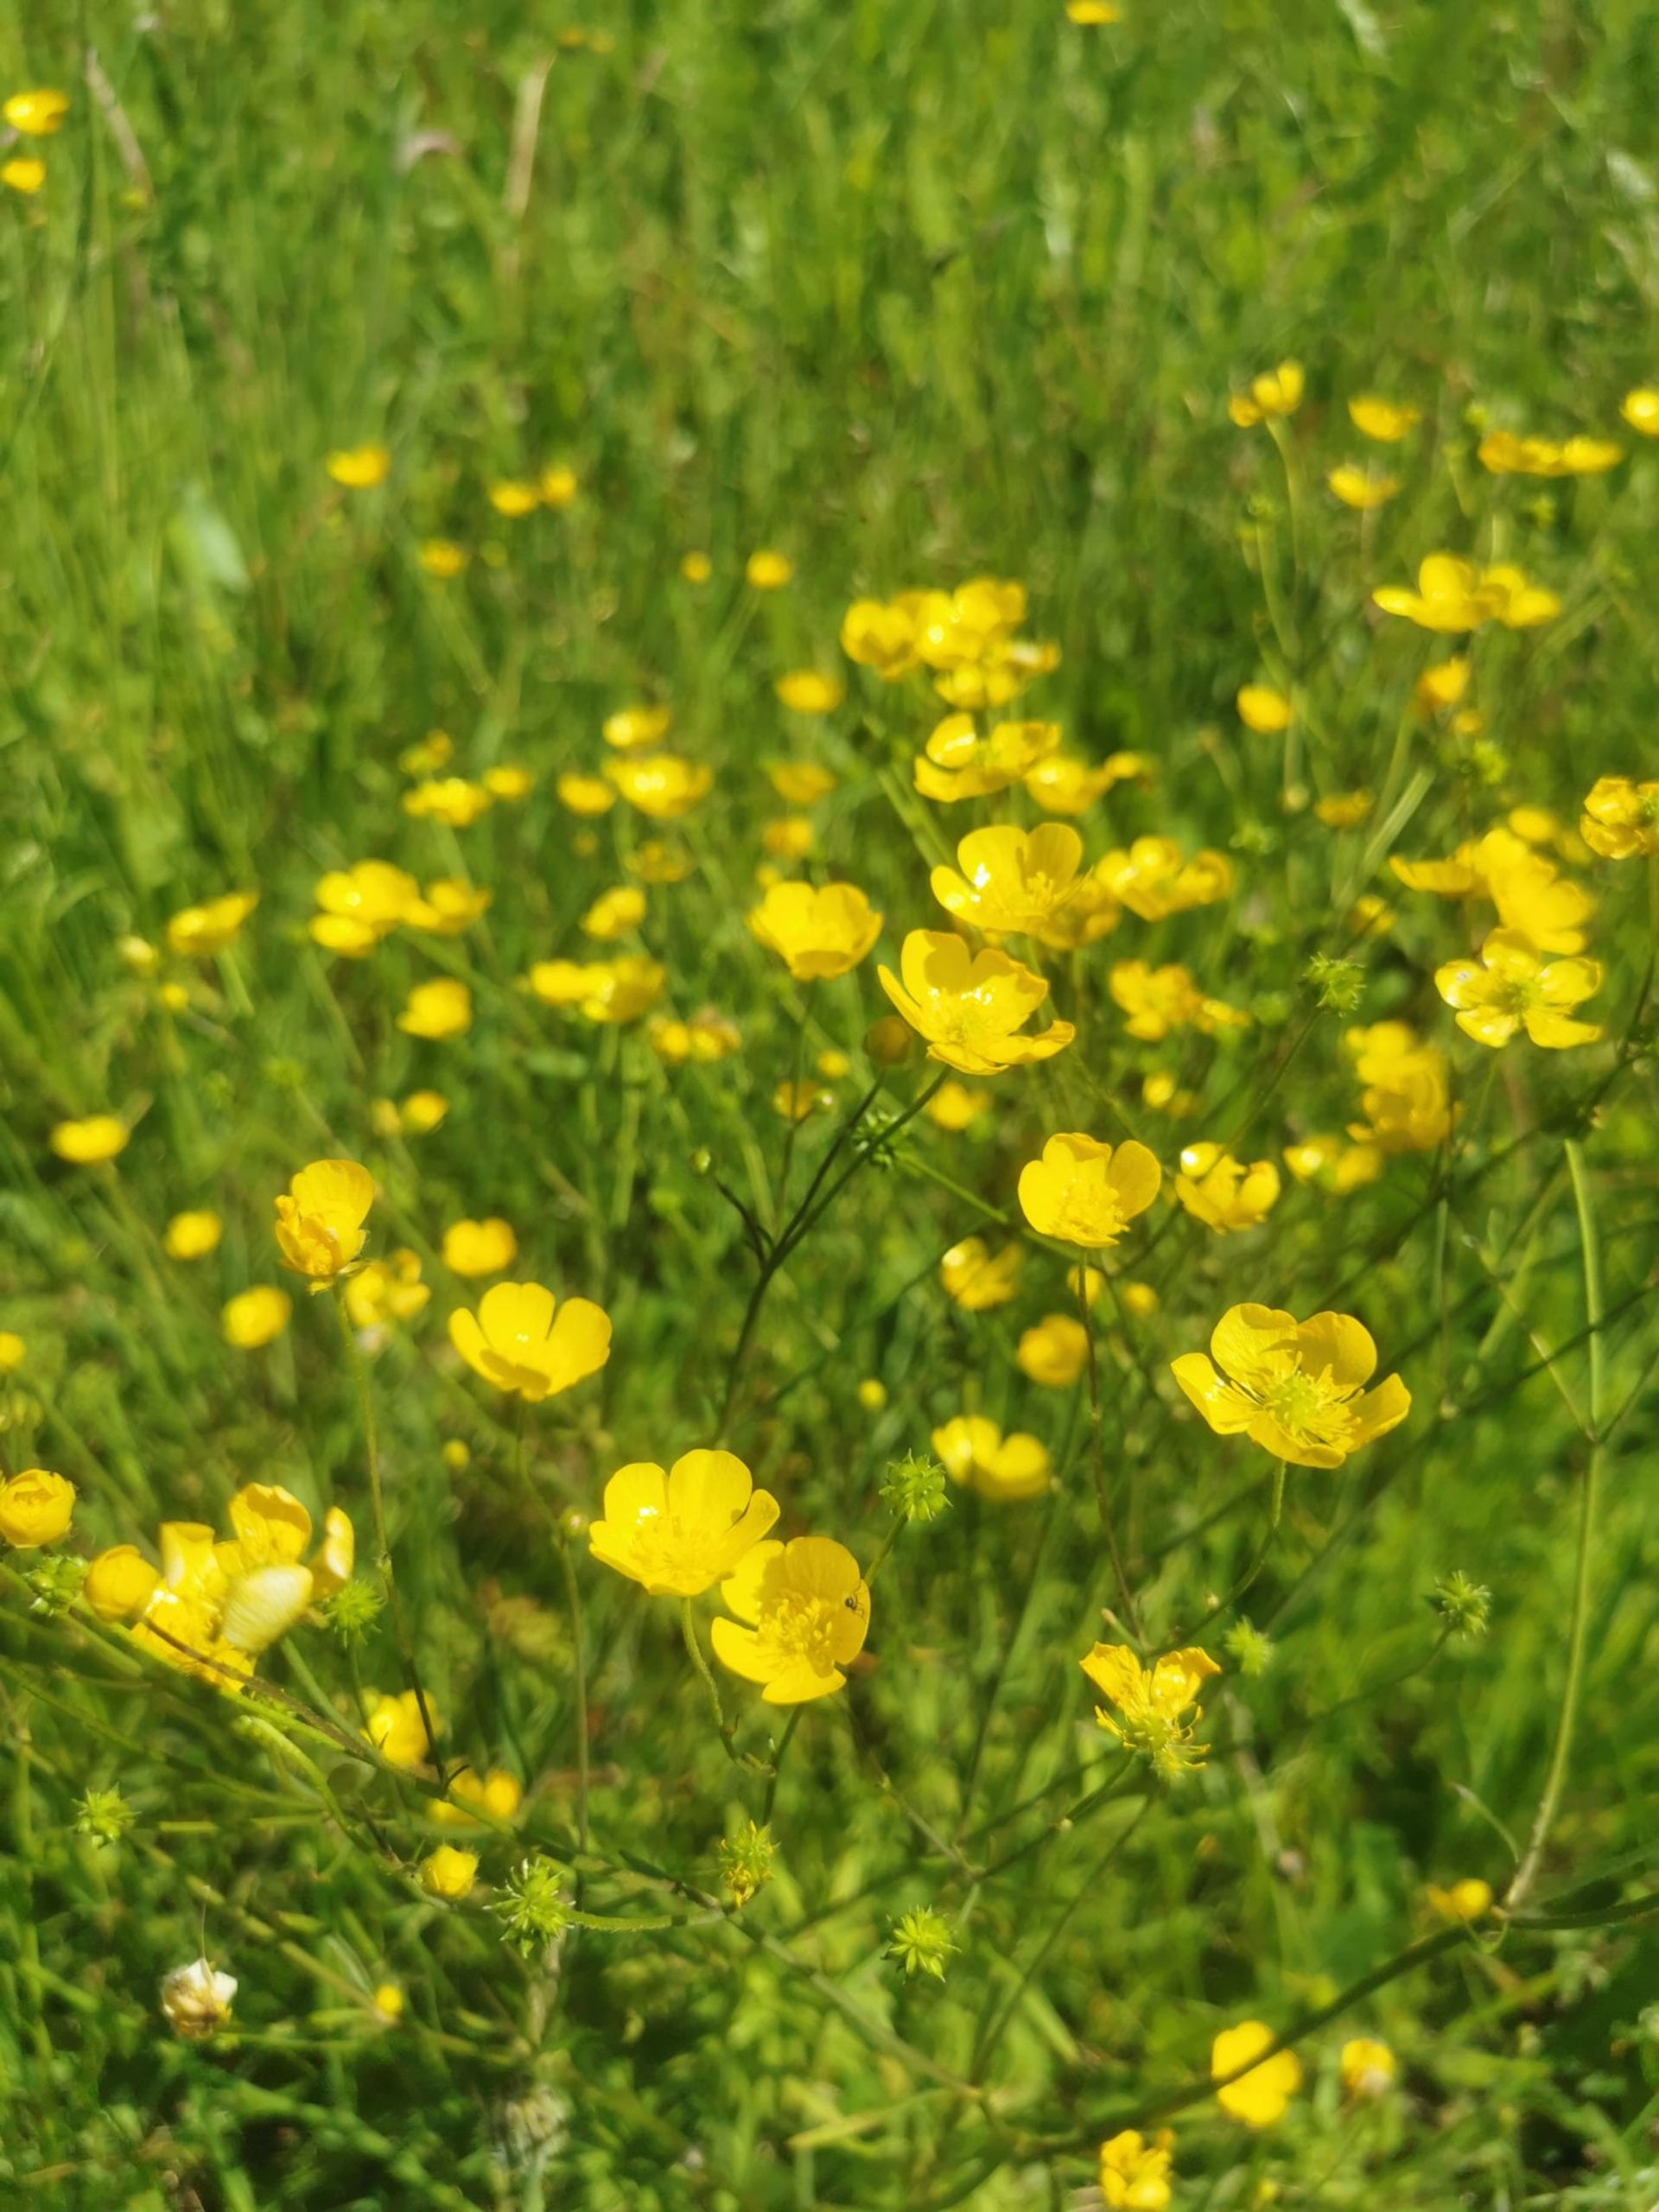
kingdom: Plantae
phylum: Tracheophyta
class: Magnoliopsida
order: Ranunculales
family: Ranunculaceae
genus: Ranunculus
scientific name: Ranunculus acris
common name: Bidende ranunkel
